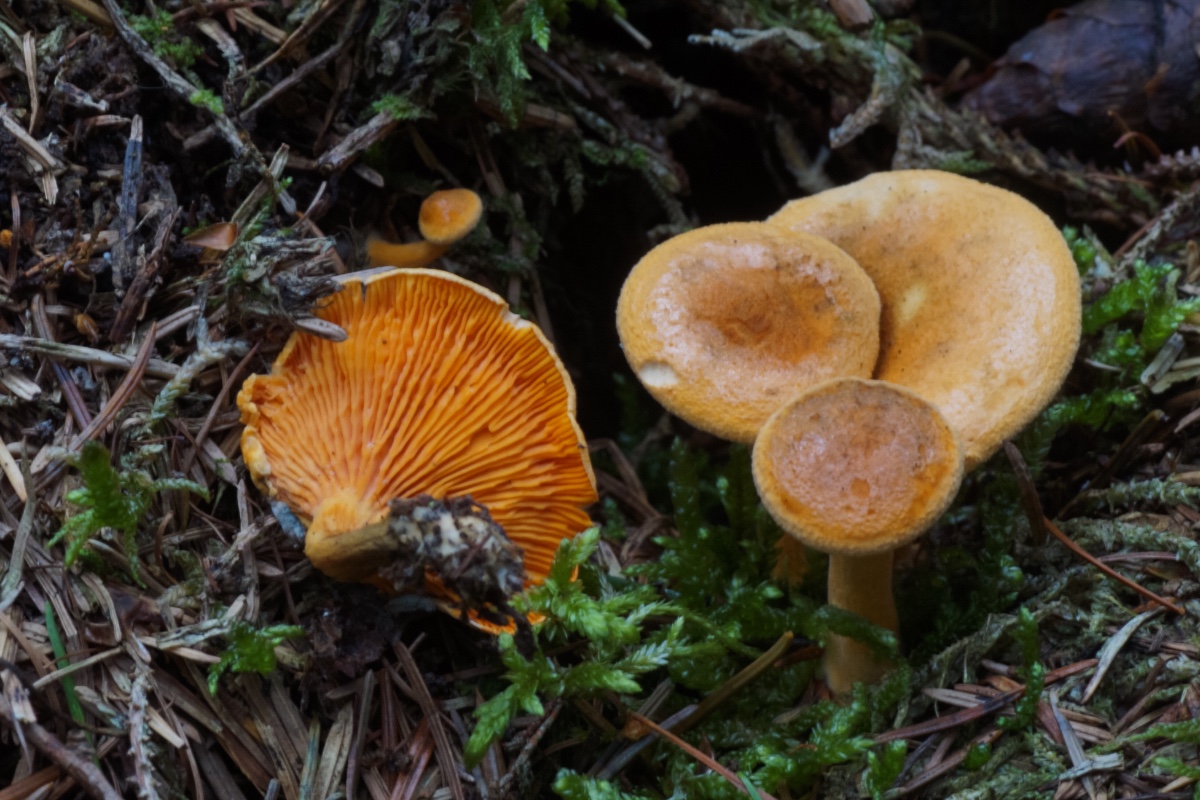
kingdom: Fungi
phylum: Basidiomycota
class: Agaricomycetes
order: Boletales
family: Hygrophoropsidaceae
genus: Hygrophoropsis
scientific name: Hygrophoropsis aurantiaca
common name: almindelig orangekantarel
